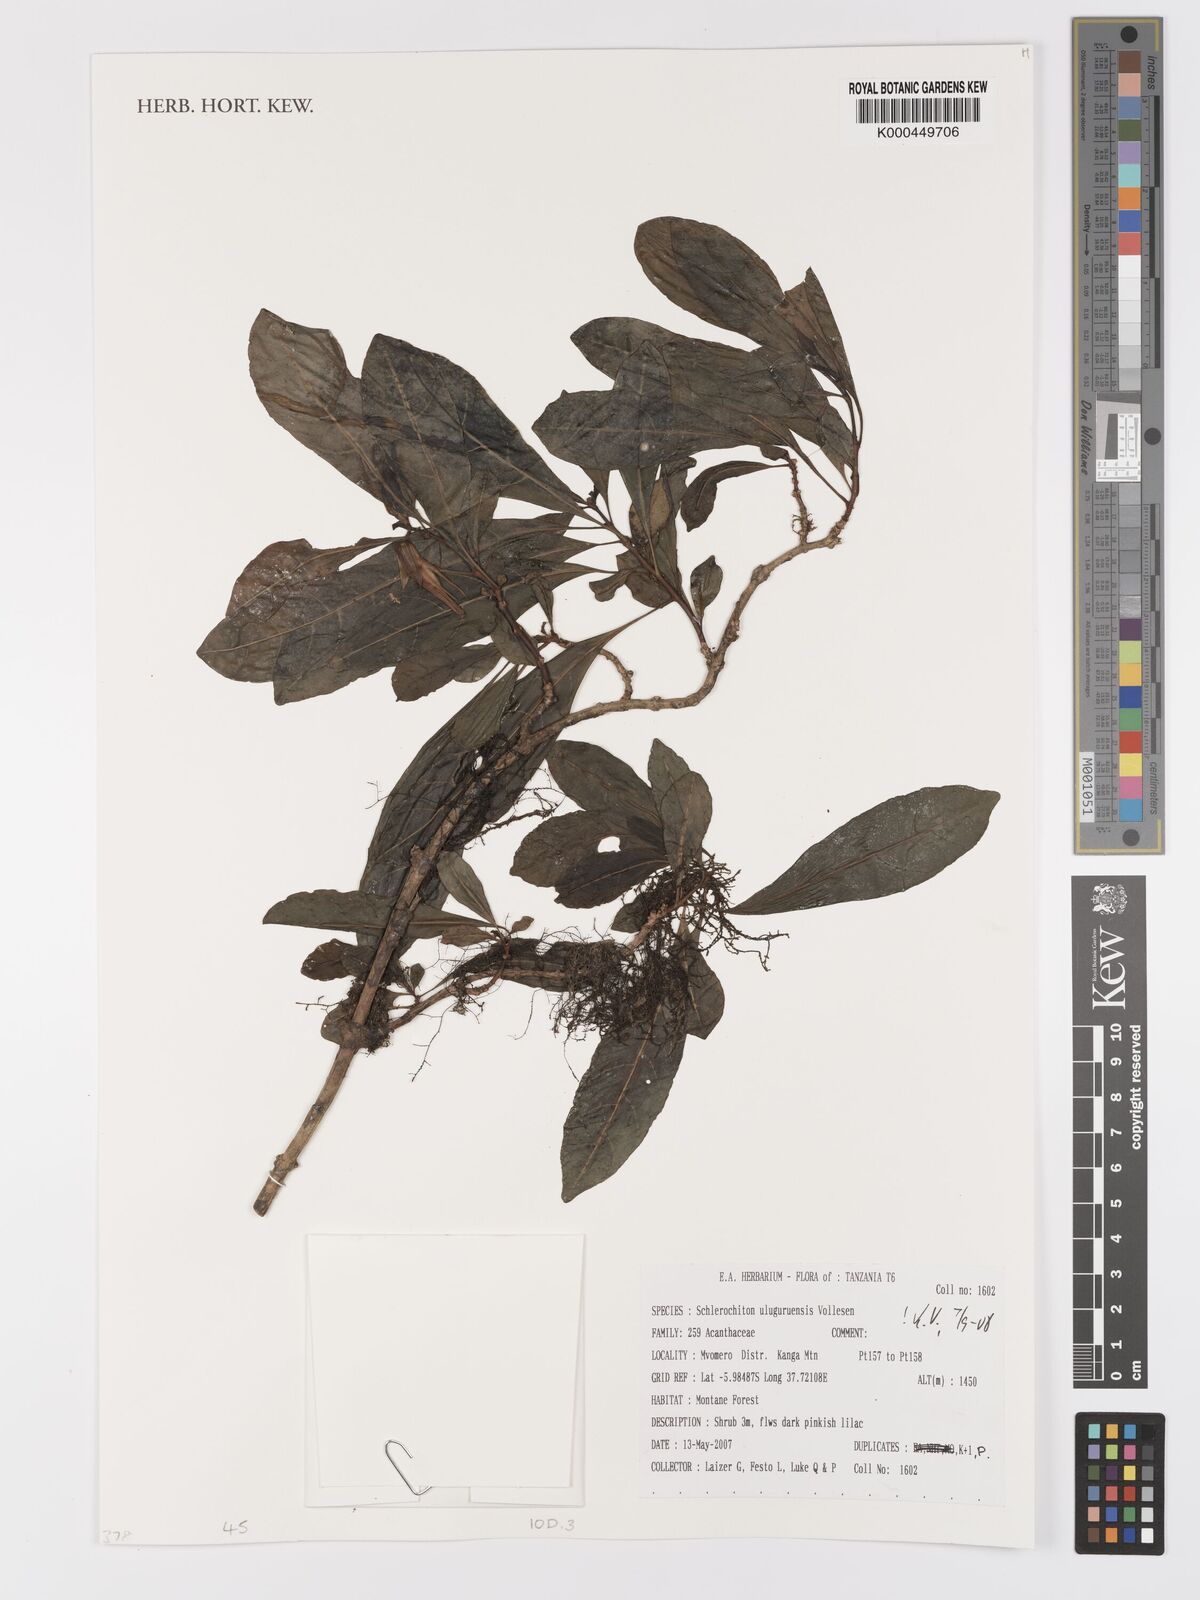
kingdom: Plantae
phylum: Tracheophyta
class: Magnoliopsida
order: Lamiales
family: Acanthaceae
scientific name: Acanthaceae
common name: Acanthaceae
